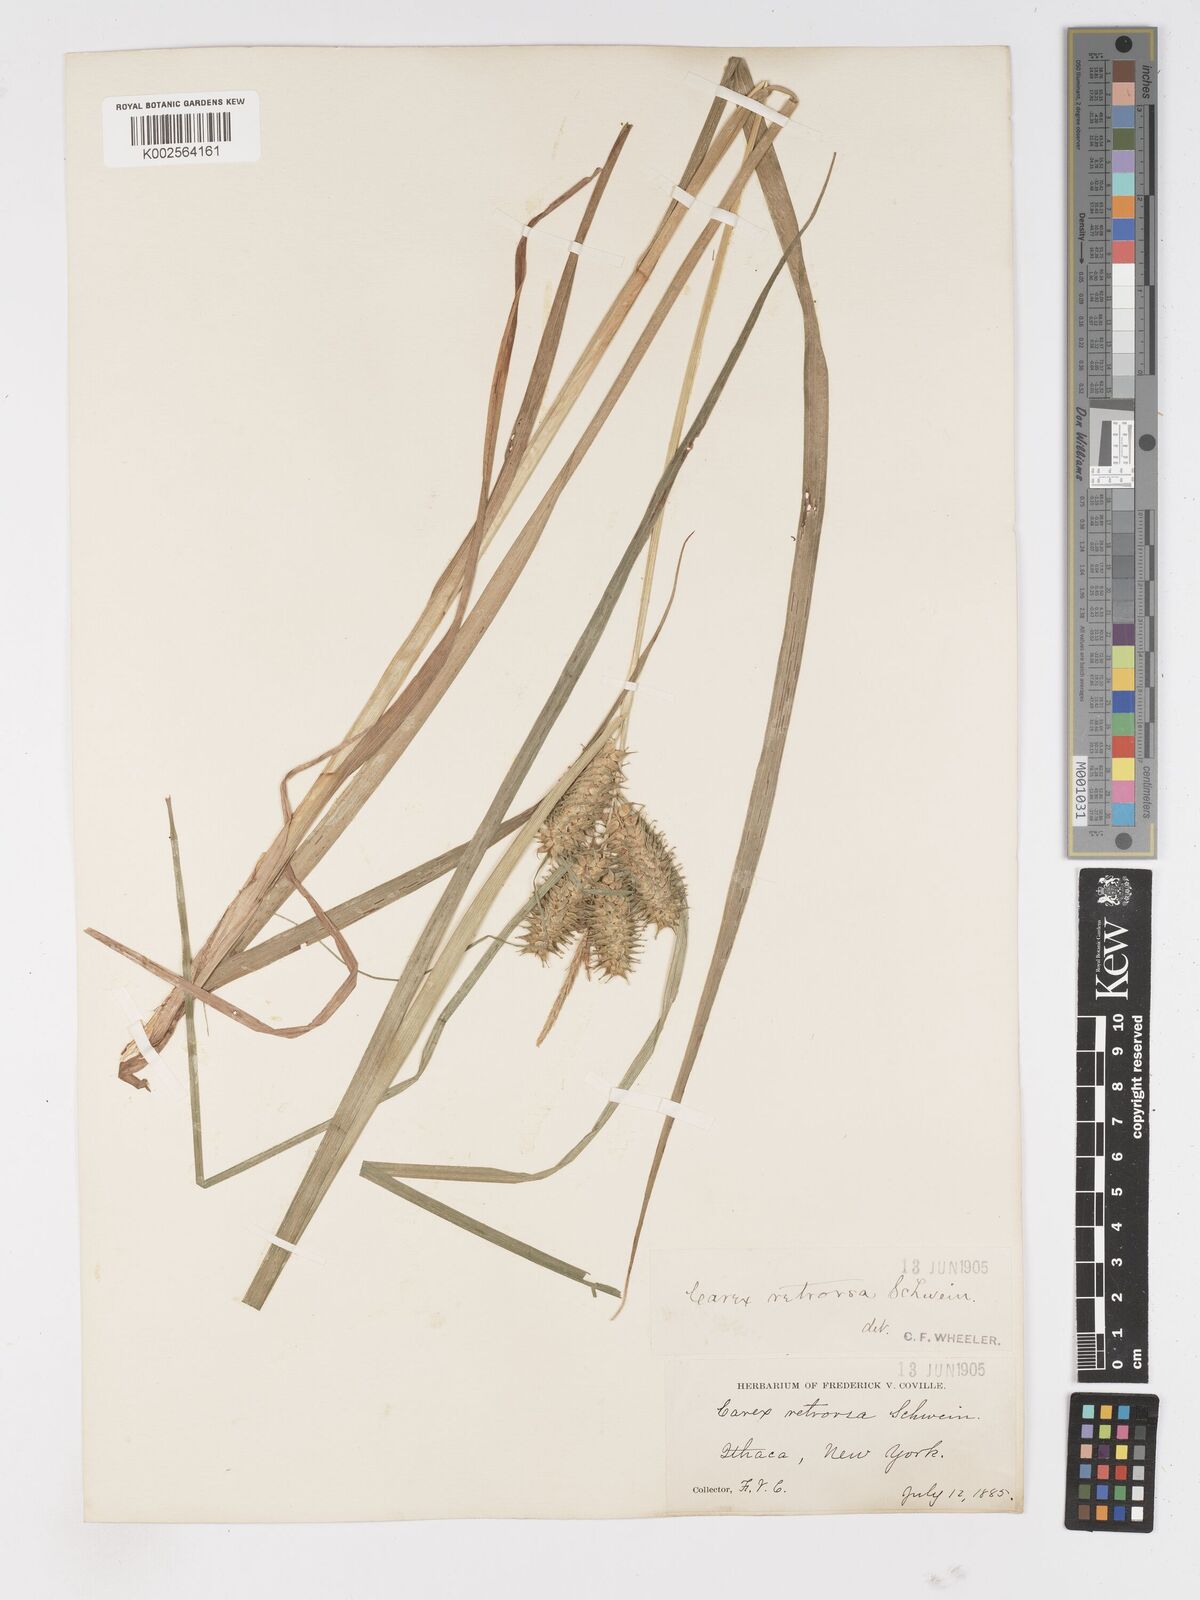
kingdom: Plantae
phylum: Tracheophyta
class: Liliopsida
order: Poales
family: Cyperaceae
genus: Carex
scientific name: Carex retrorsa
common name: Knot-sheath sedge
